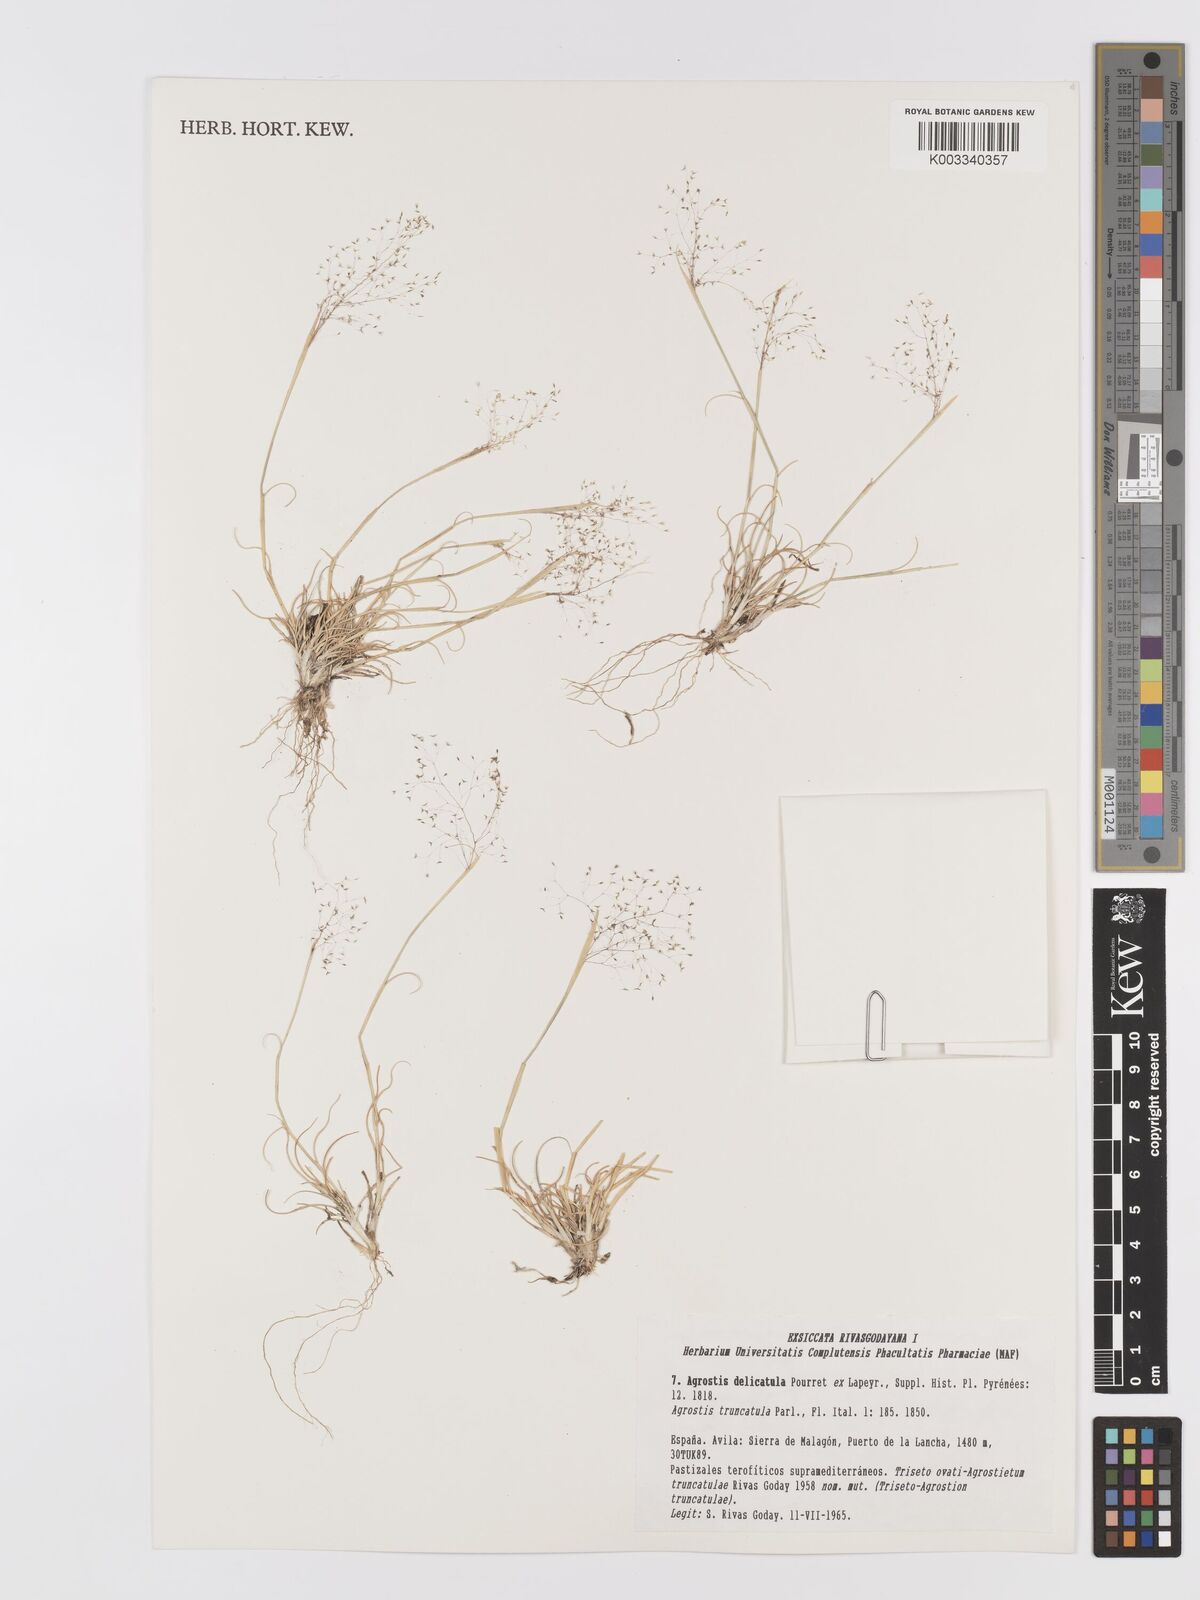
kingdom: Plantae
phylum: Tracheophyta
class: Liliopsida
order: Poales
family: Poaceae
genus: Agrostis
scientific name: Agrostis castellana
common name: Highland bent
